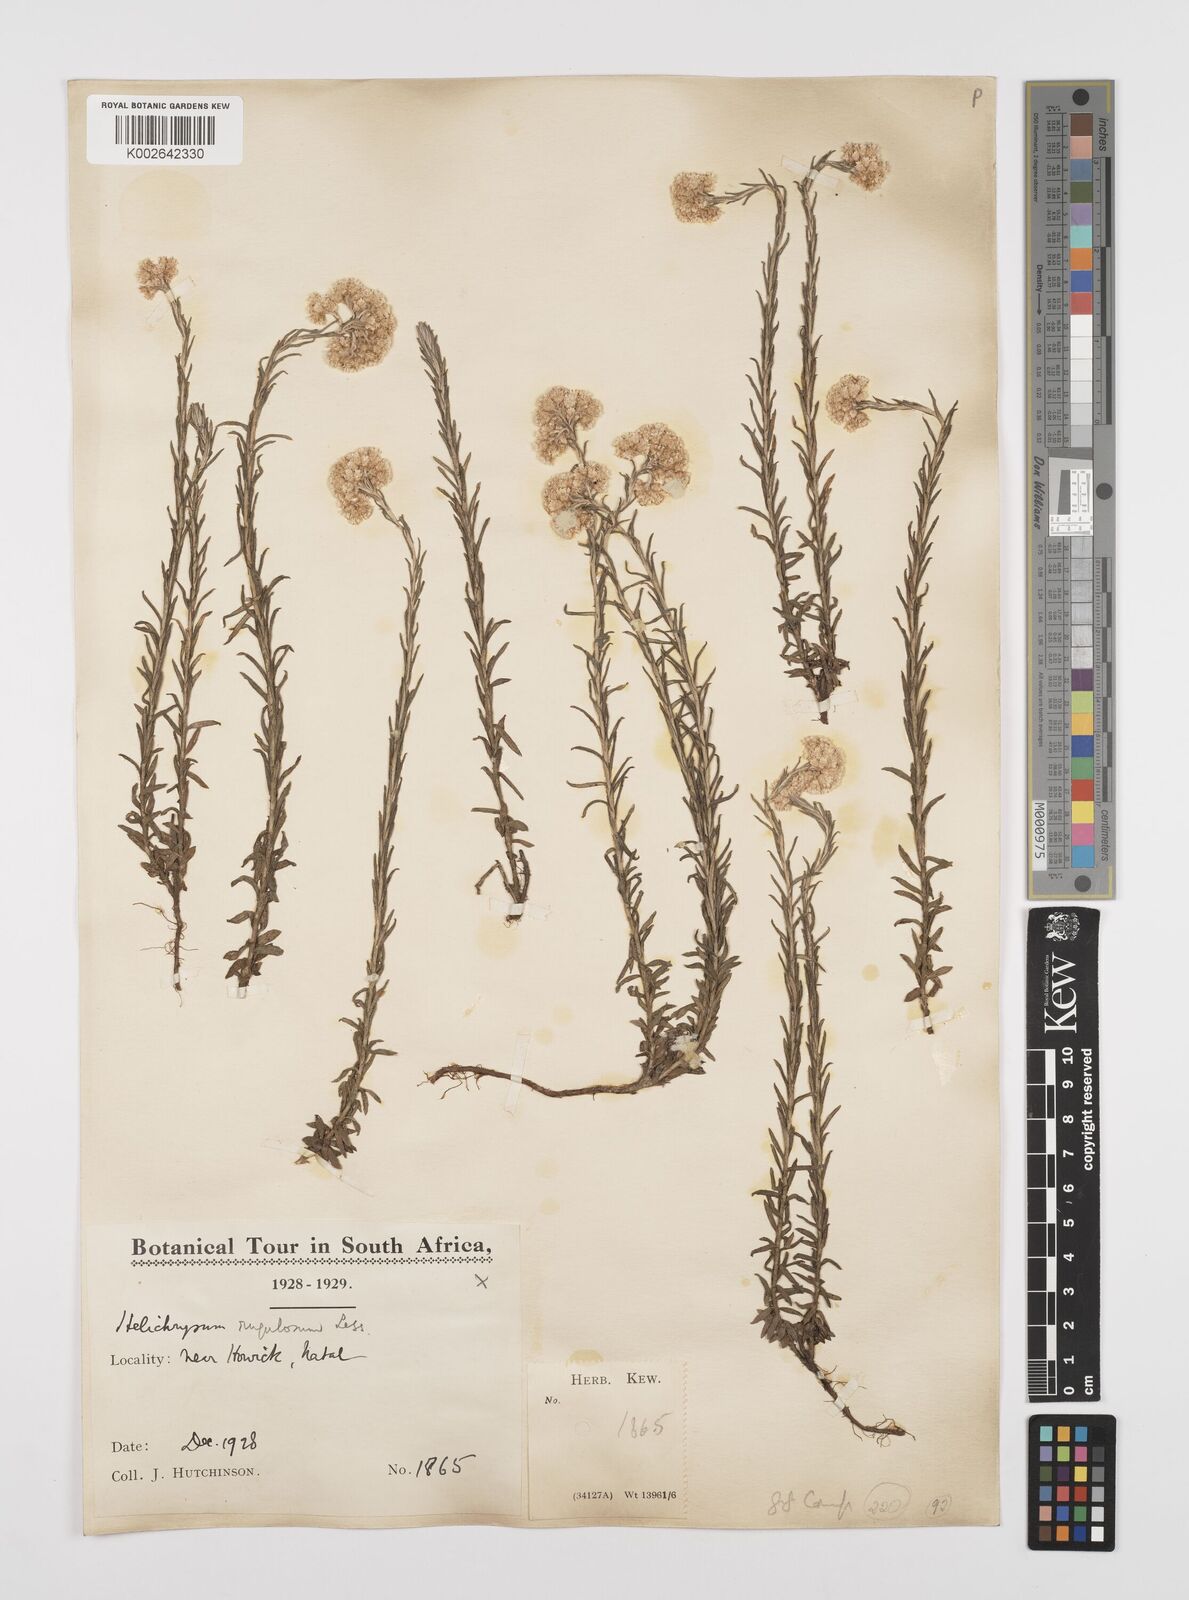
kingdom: Plantae
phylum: Tracheophyta
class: Magnoliopsida
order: Asterales
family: Asteraceae
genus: Helichrysum
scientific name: Helichrysum rugulosum
